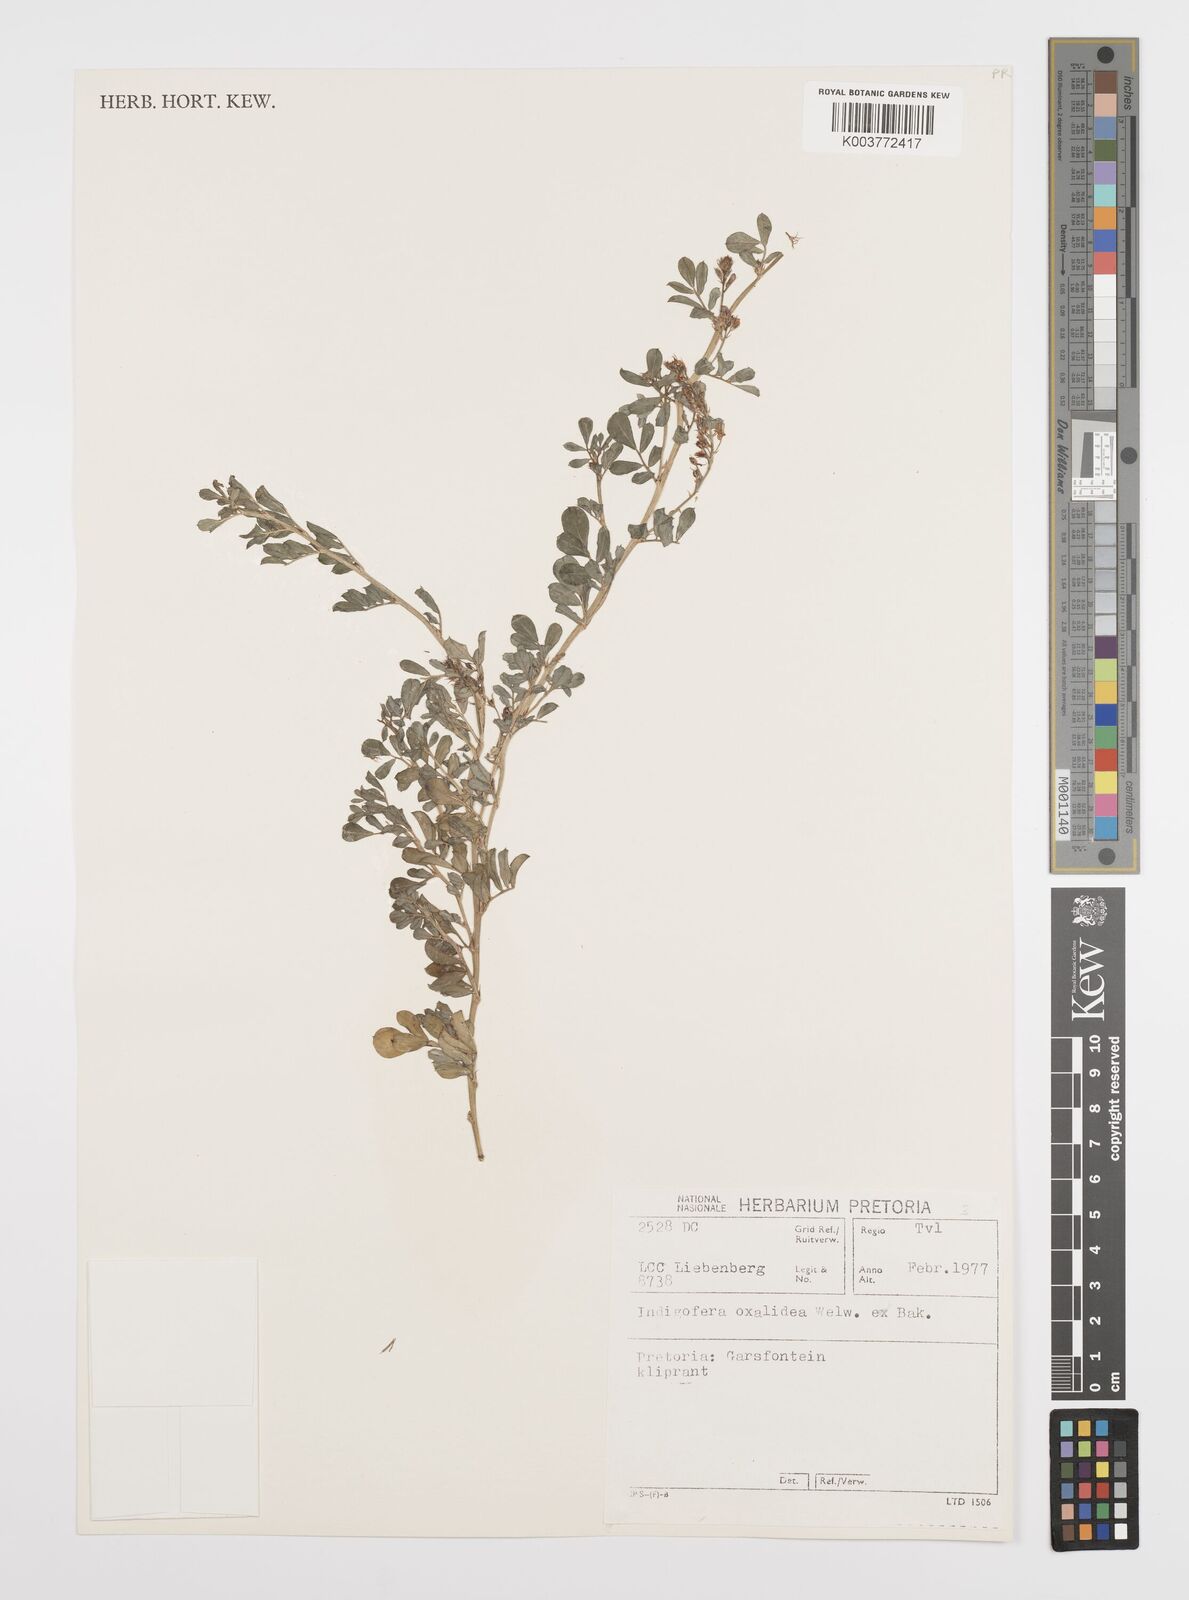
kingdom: Plantae
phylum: Tracheophyta
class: Magnoliopsida
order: Fabales
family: Fabaceae
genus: Indigofera
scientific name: Indigofera oxalidea
